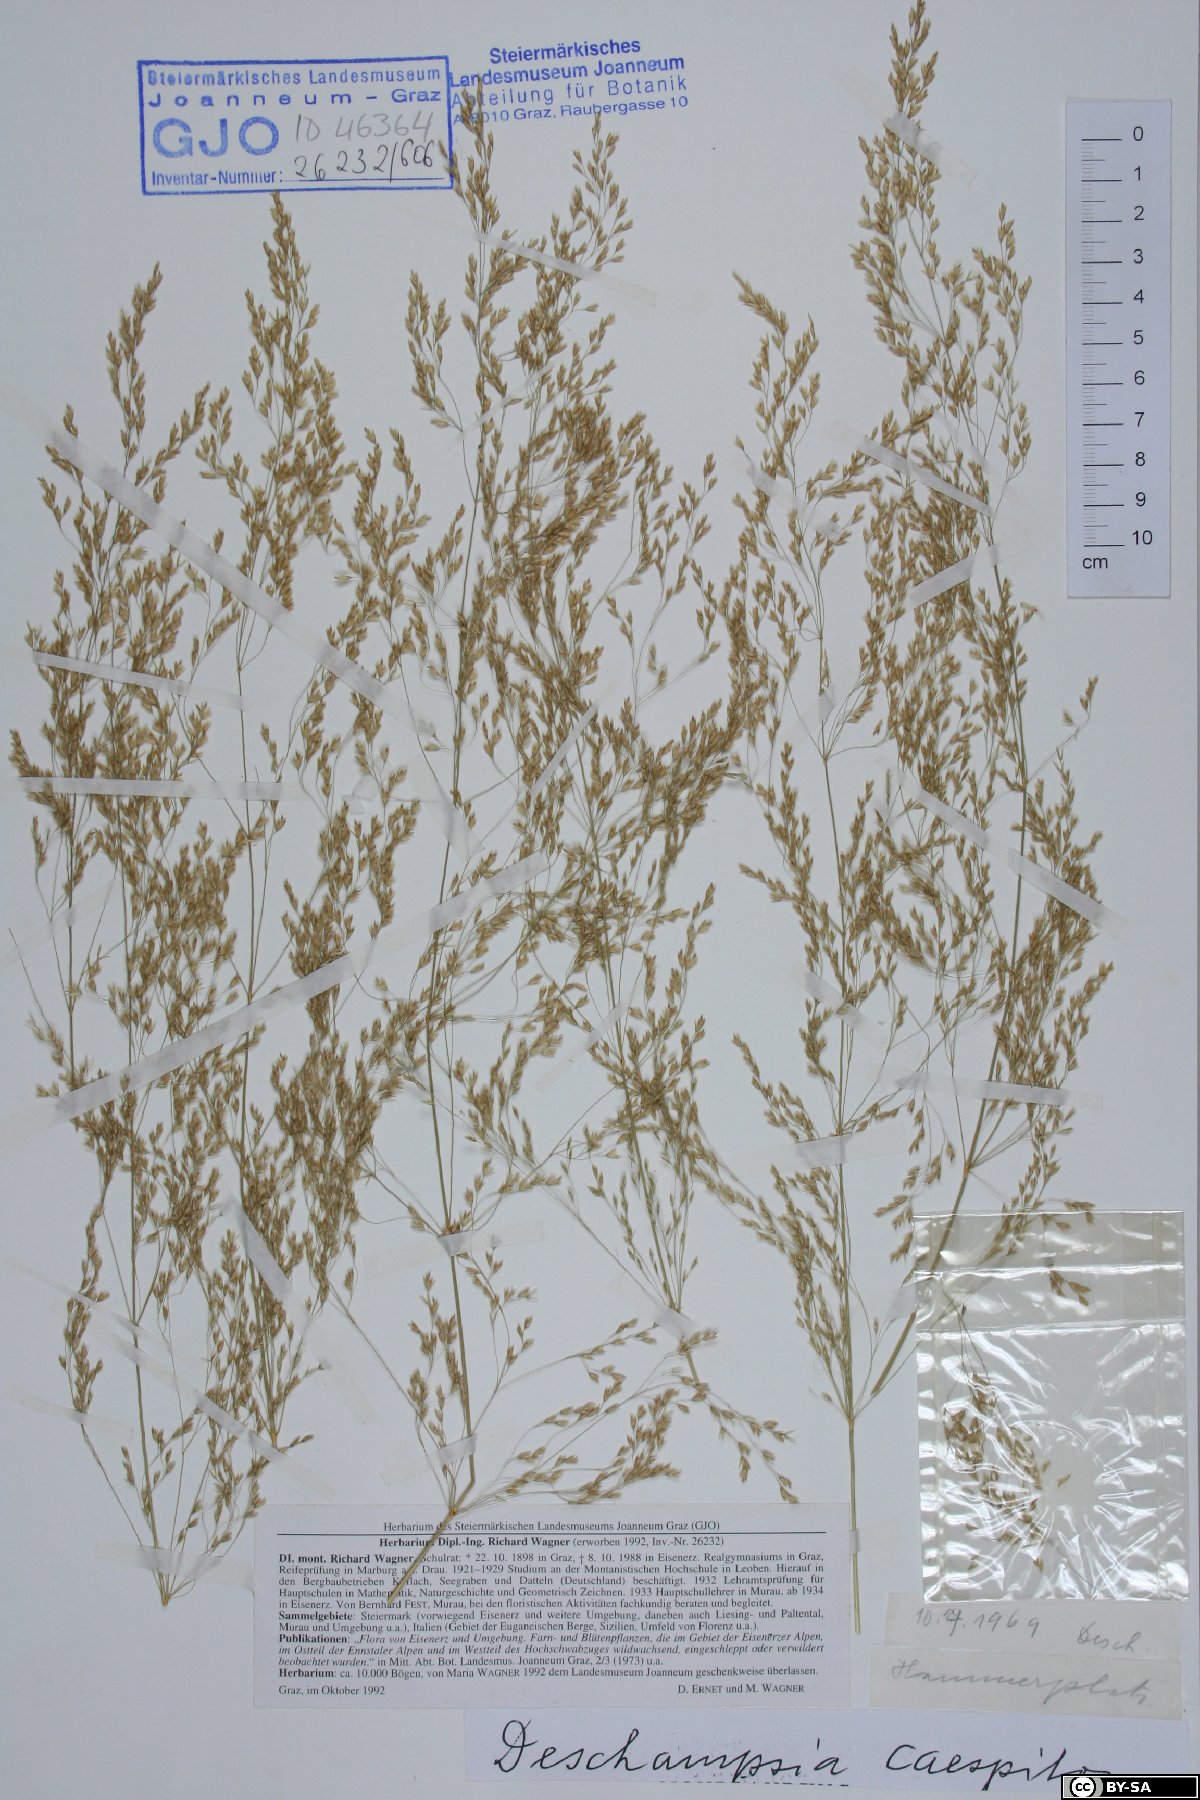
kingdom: Plantae
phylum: Tracheophyta
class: Liliopsida
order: Poales
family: Poaceae
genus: Deschampsia
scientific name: Deschampsia cespitosa
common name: Tufted hair-grass
